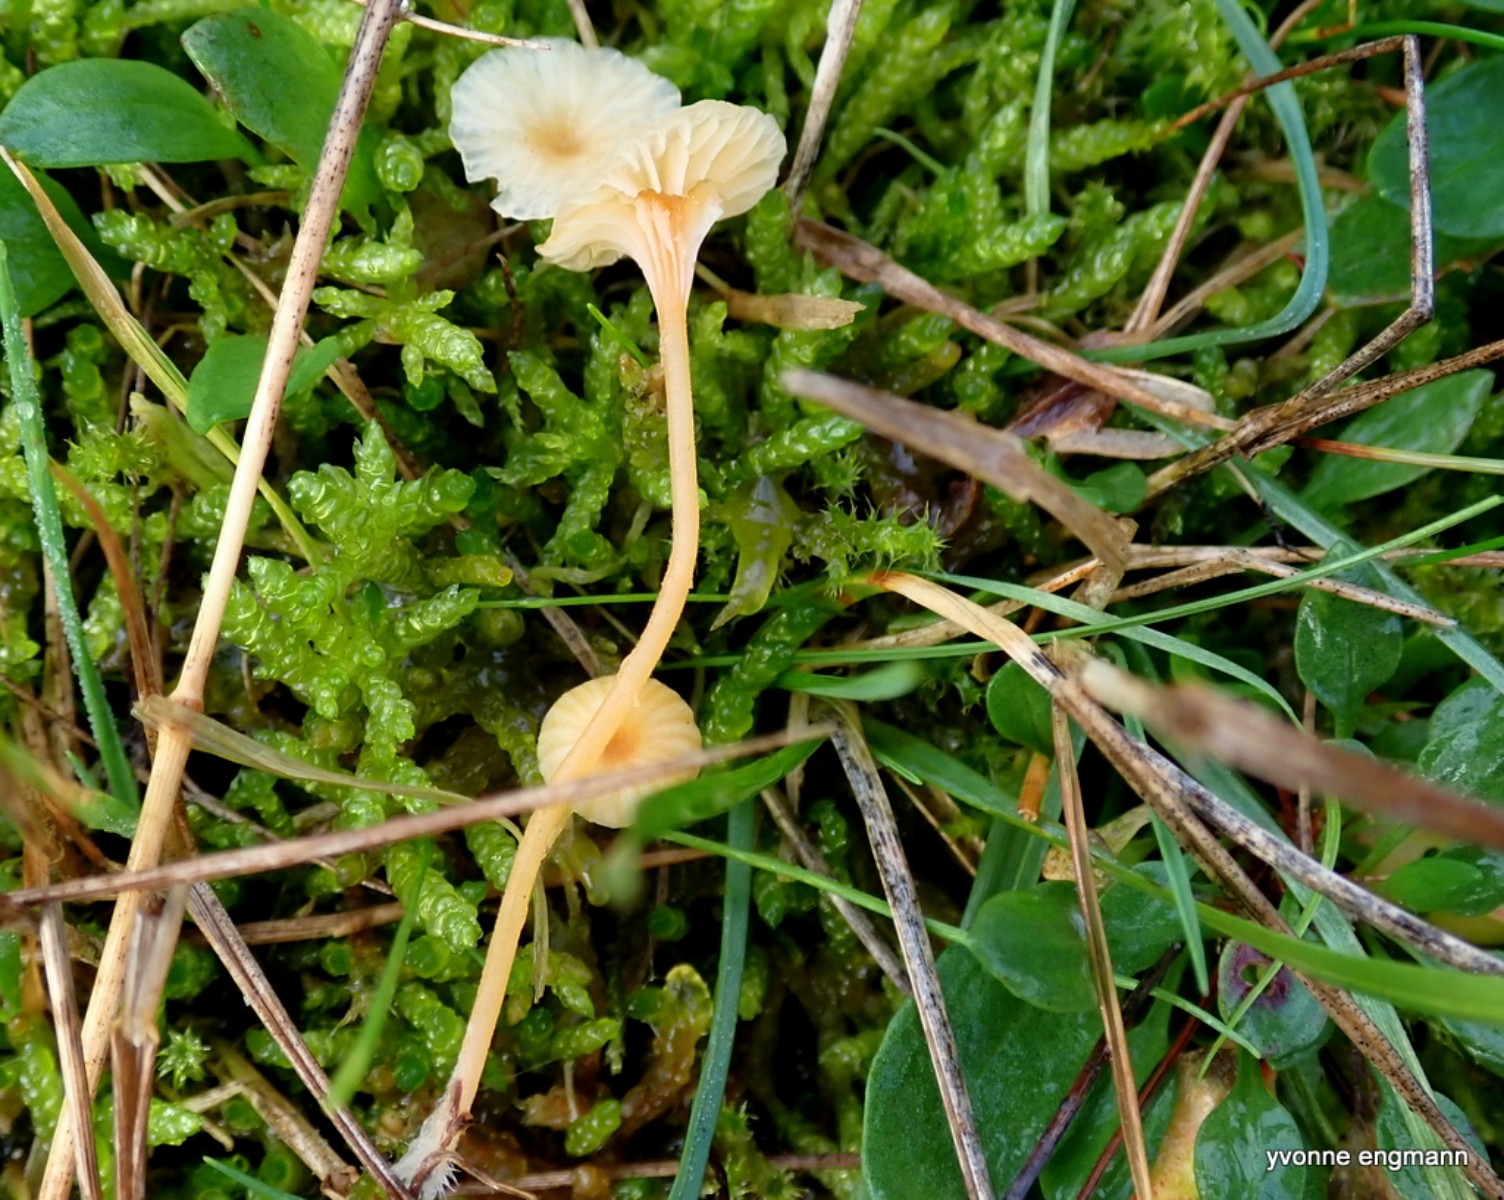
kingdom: Fungi
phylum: Basidiomycota
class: Agaricomycetes
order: Hymenochaetales
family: Rickenellaceae
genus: Rickenella
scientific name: Rickenella fibula
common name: orange mosnavlehat
